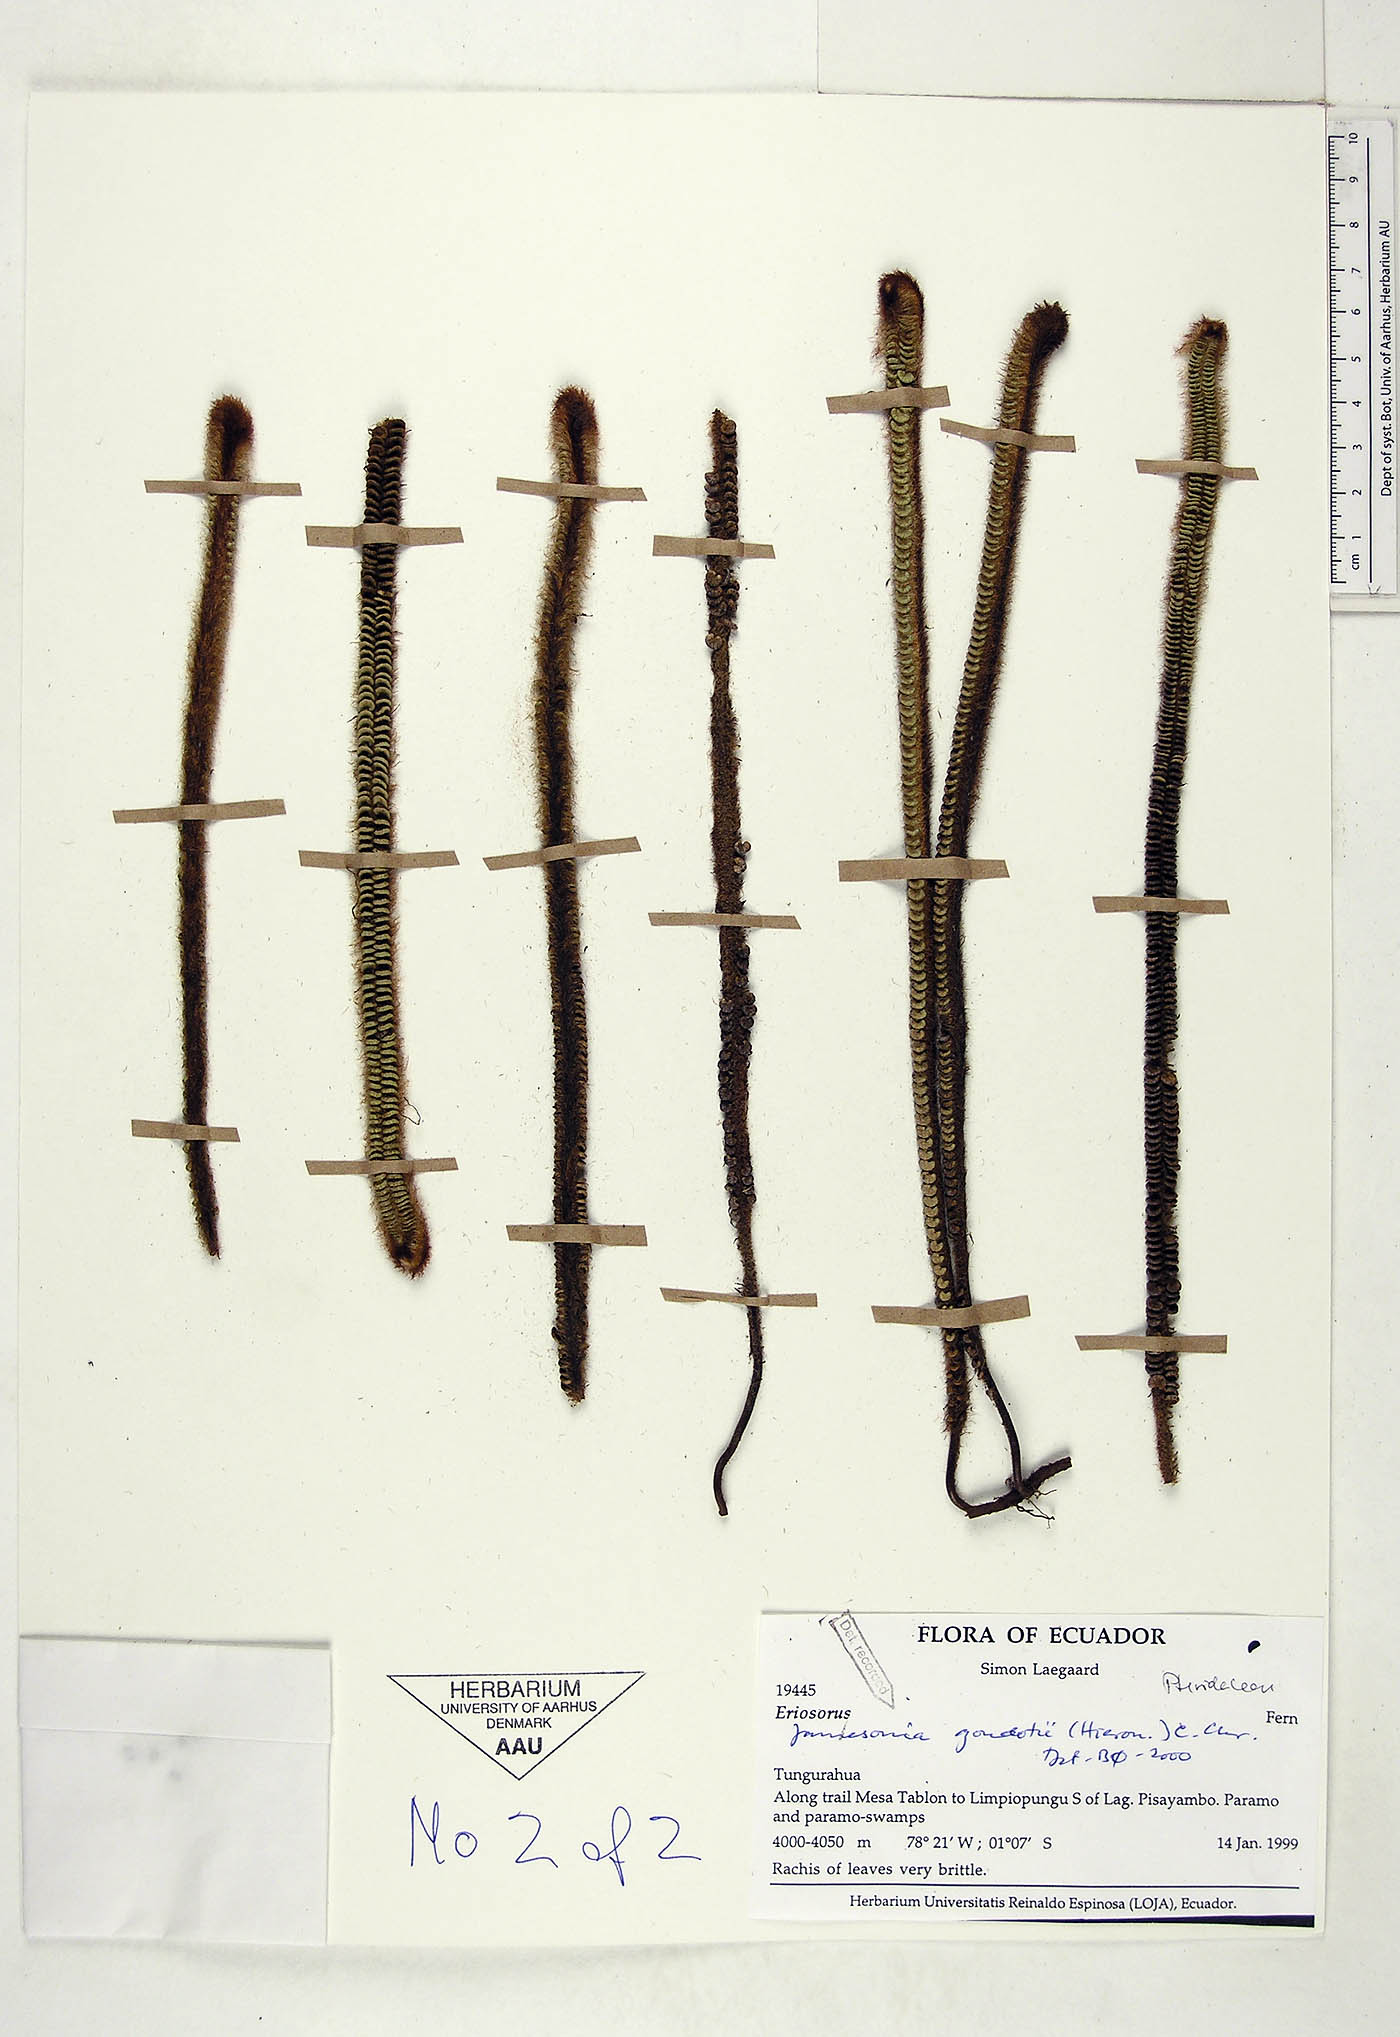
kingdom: Plantae
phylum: Tracheophyta
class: Polypodiopsida
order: Polypodiales
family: Pteridaceae
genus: Jamesonia
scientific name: Jamesonia goudotii
